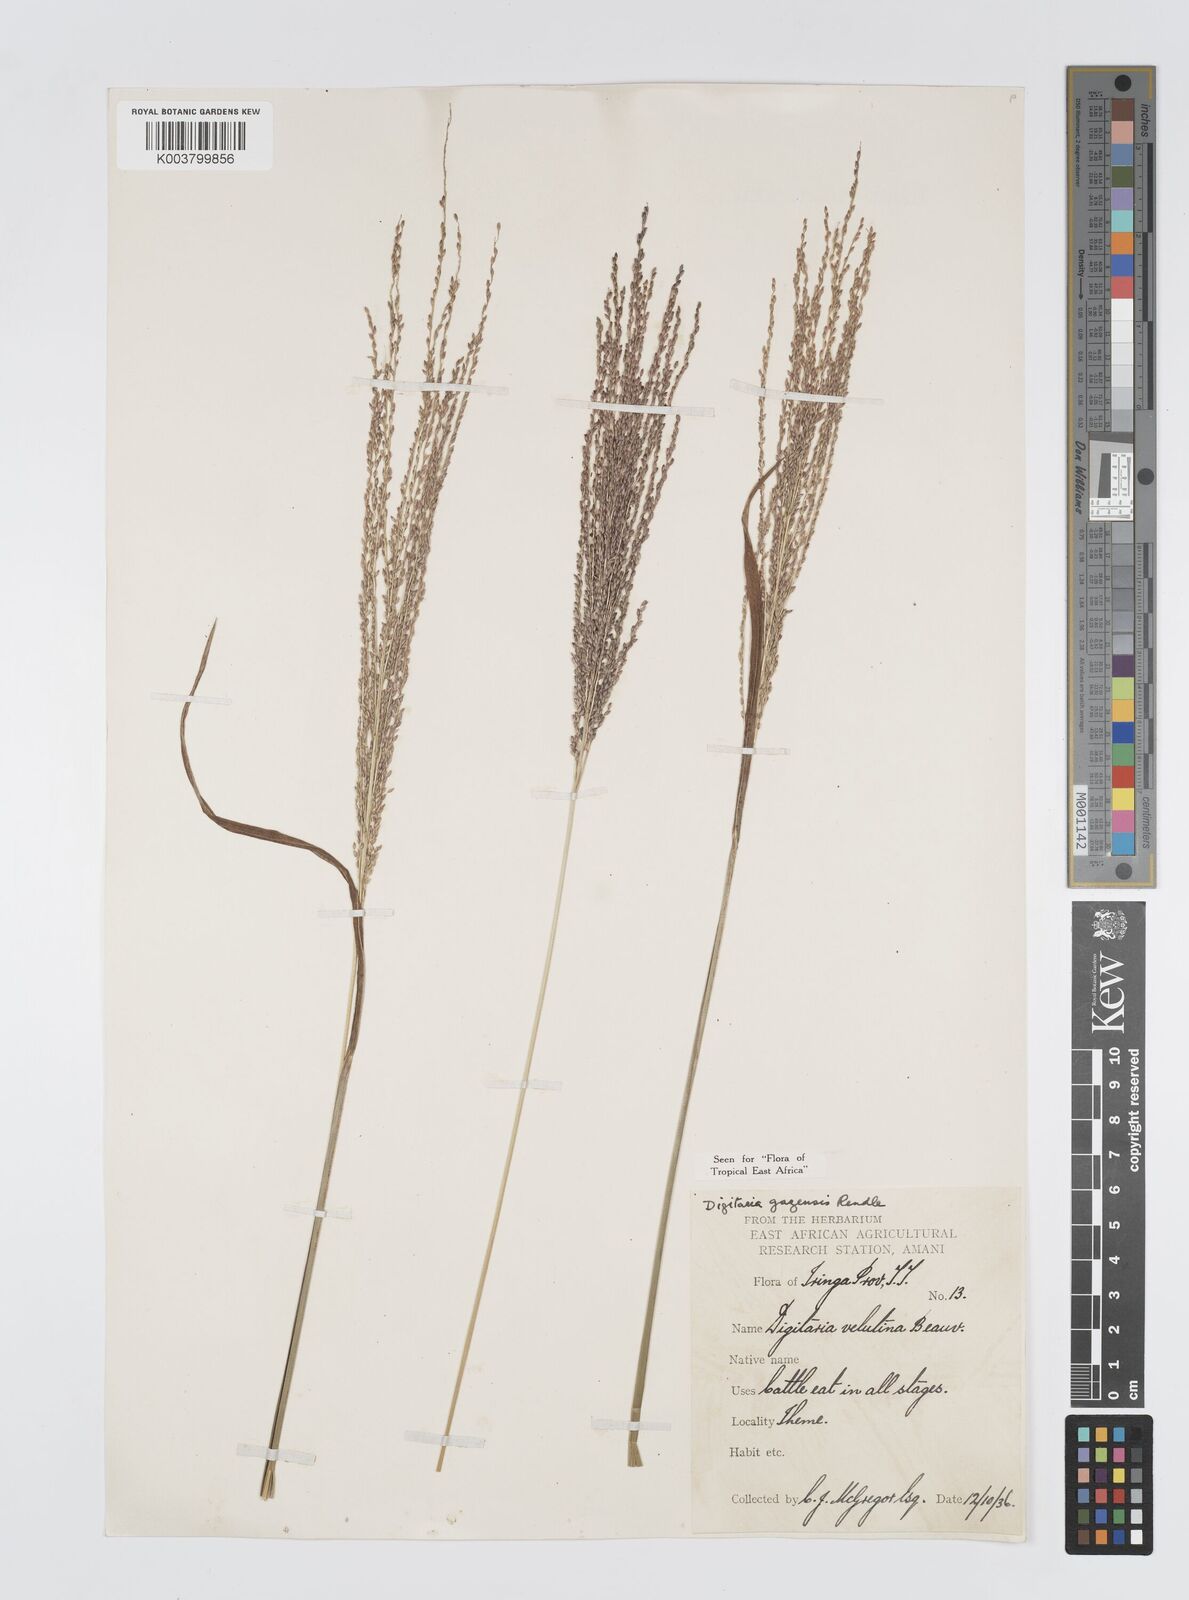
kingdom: Plantae
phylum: Tracheophyta
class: Liliopsida
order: Poales
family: Poaceae
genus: Digitaria
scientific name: Digitaria gazensis
